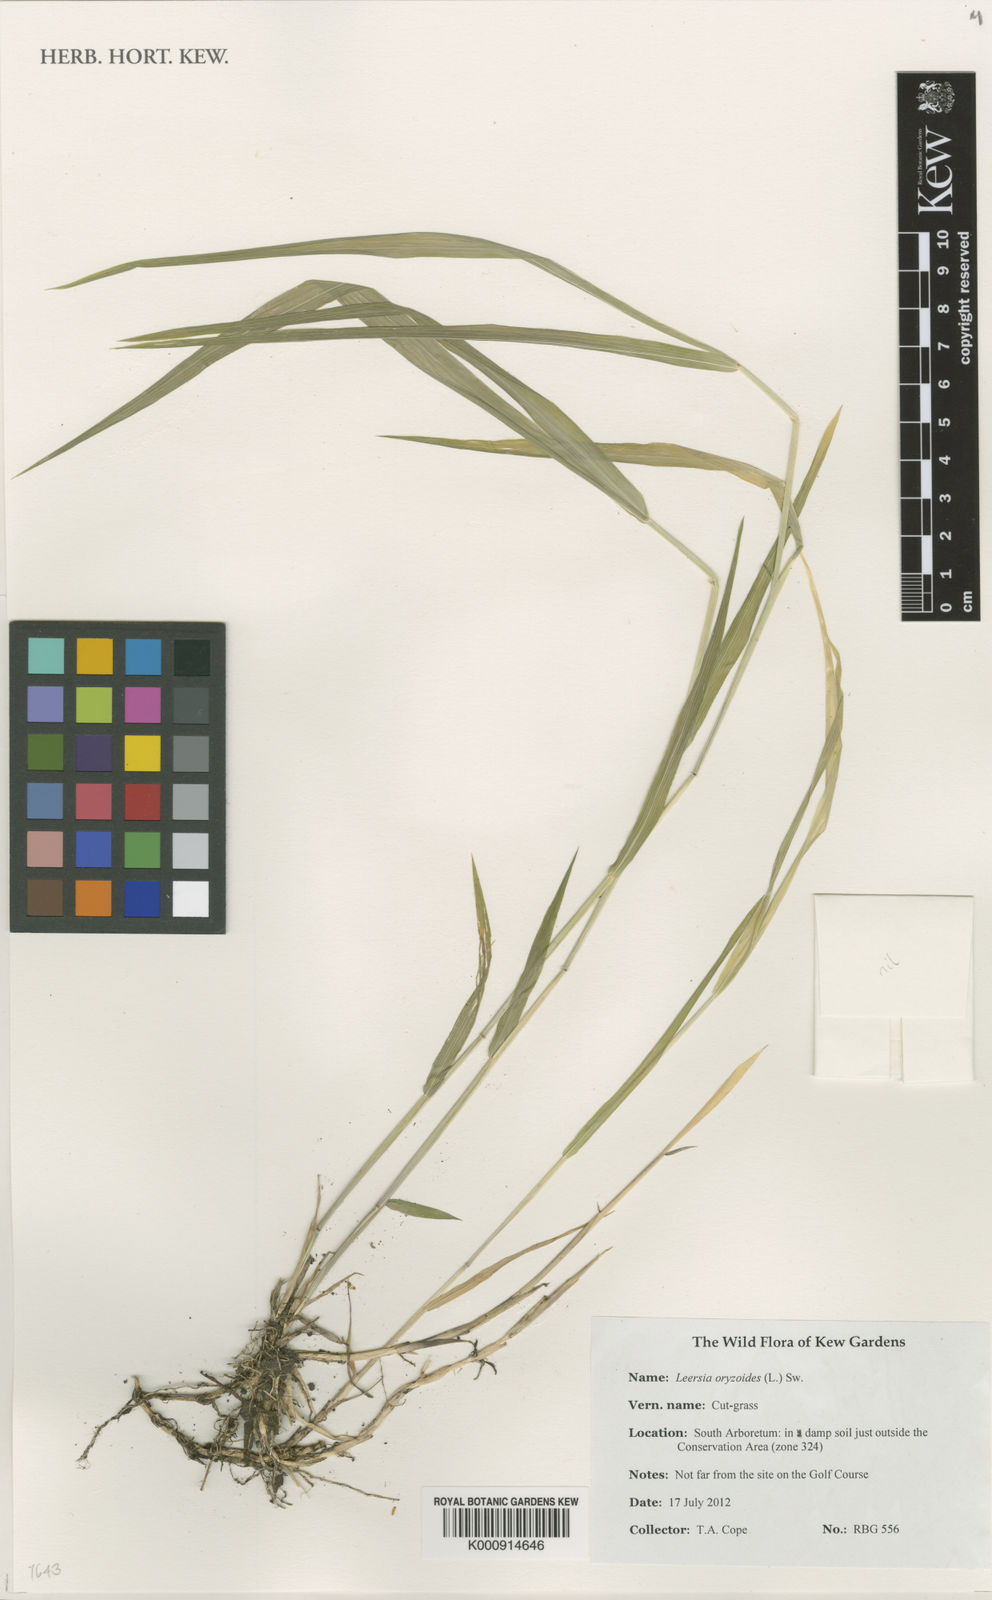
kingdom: Plantae
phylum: Tracheophyta
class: Liliopsida
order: Poales
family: Poaceae
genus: Leersia
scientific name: Leersia oryzoides
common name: Cut-grass
